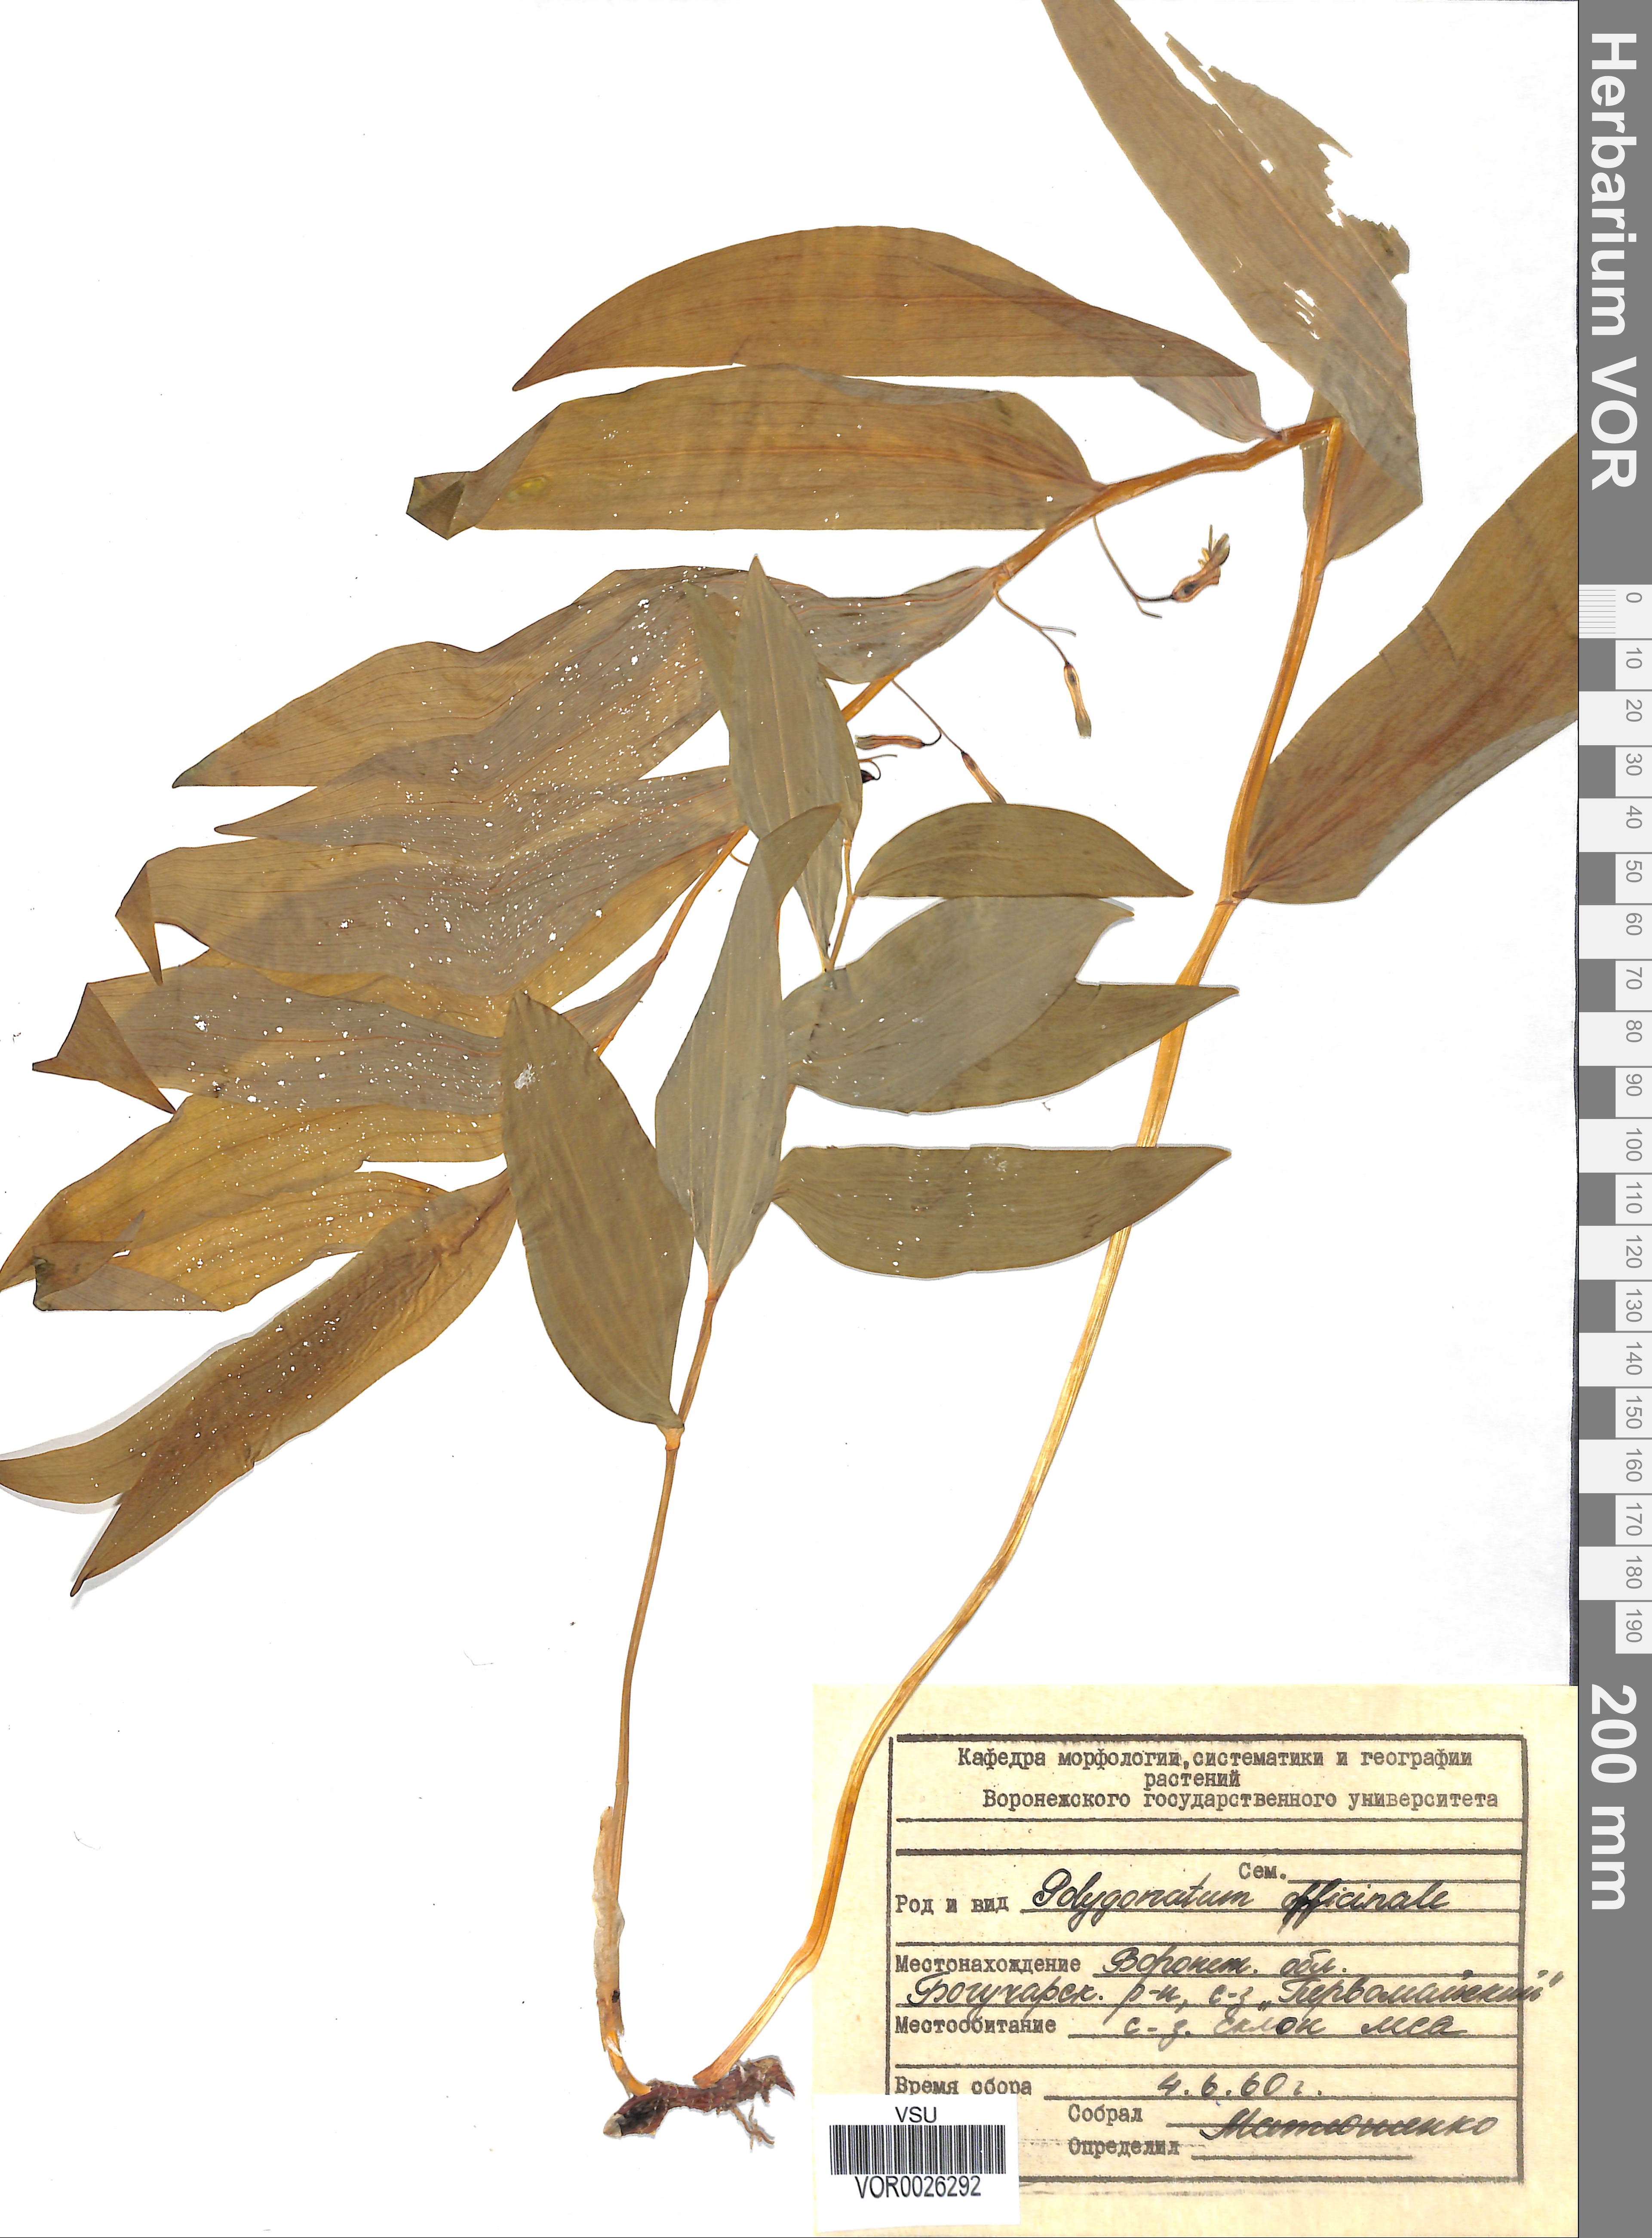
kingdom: Plantae
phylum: Tracheophyta
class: Liliopsida
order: Asparagales
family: Asparagaceae
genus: Polygonatum
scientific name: Polygonatum multiflorum
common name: Solomon's-seal
